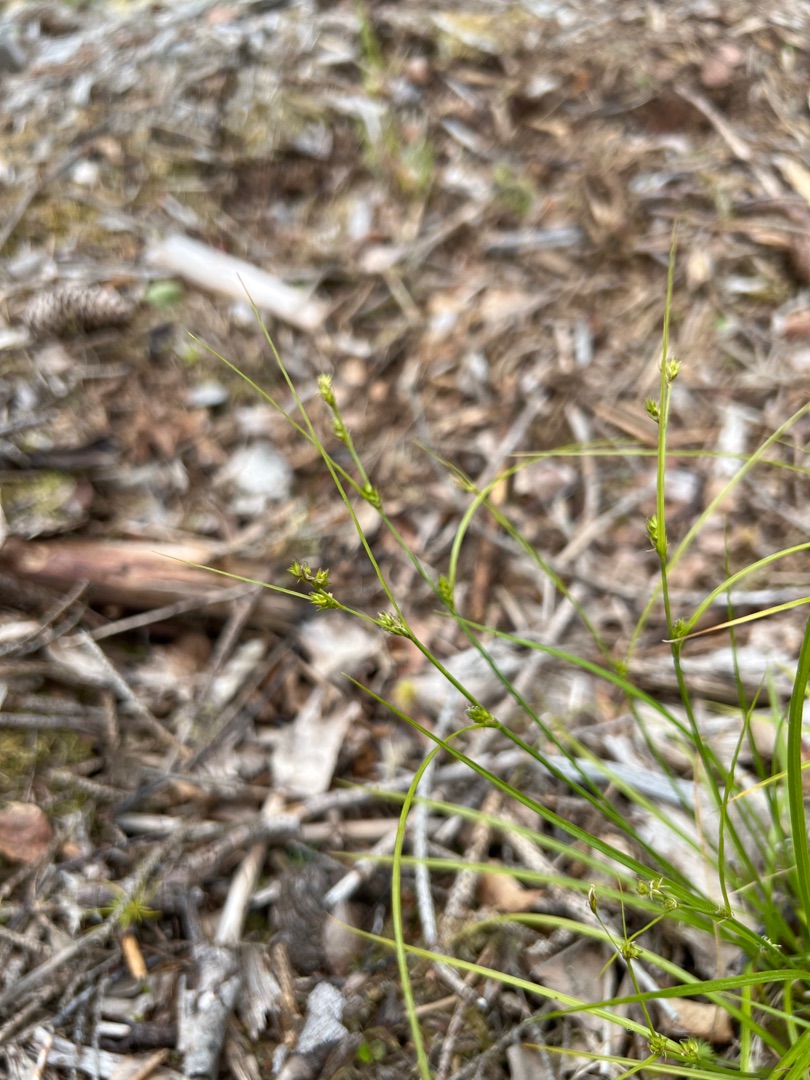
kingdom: Plantae
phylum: Tracheophyta
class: Liliopsida
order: Poales
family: Cyperaceae
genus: Carex
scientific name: Carex remota
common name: Akselblomstret star
